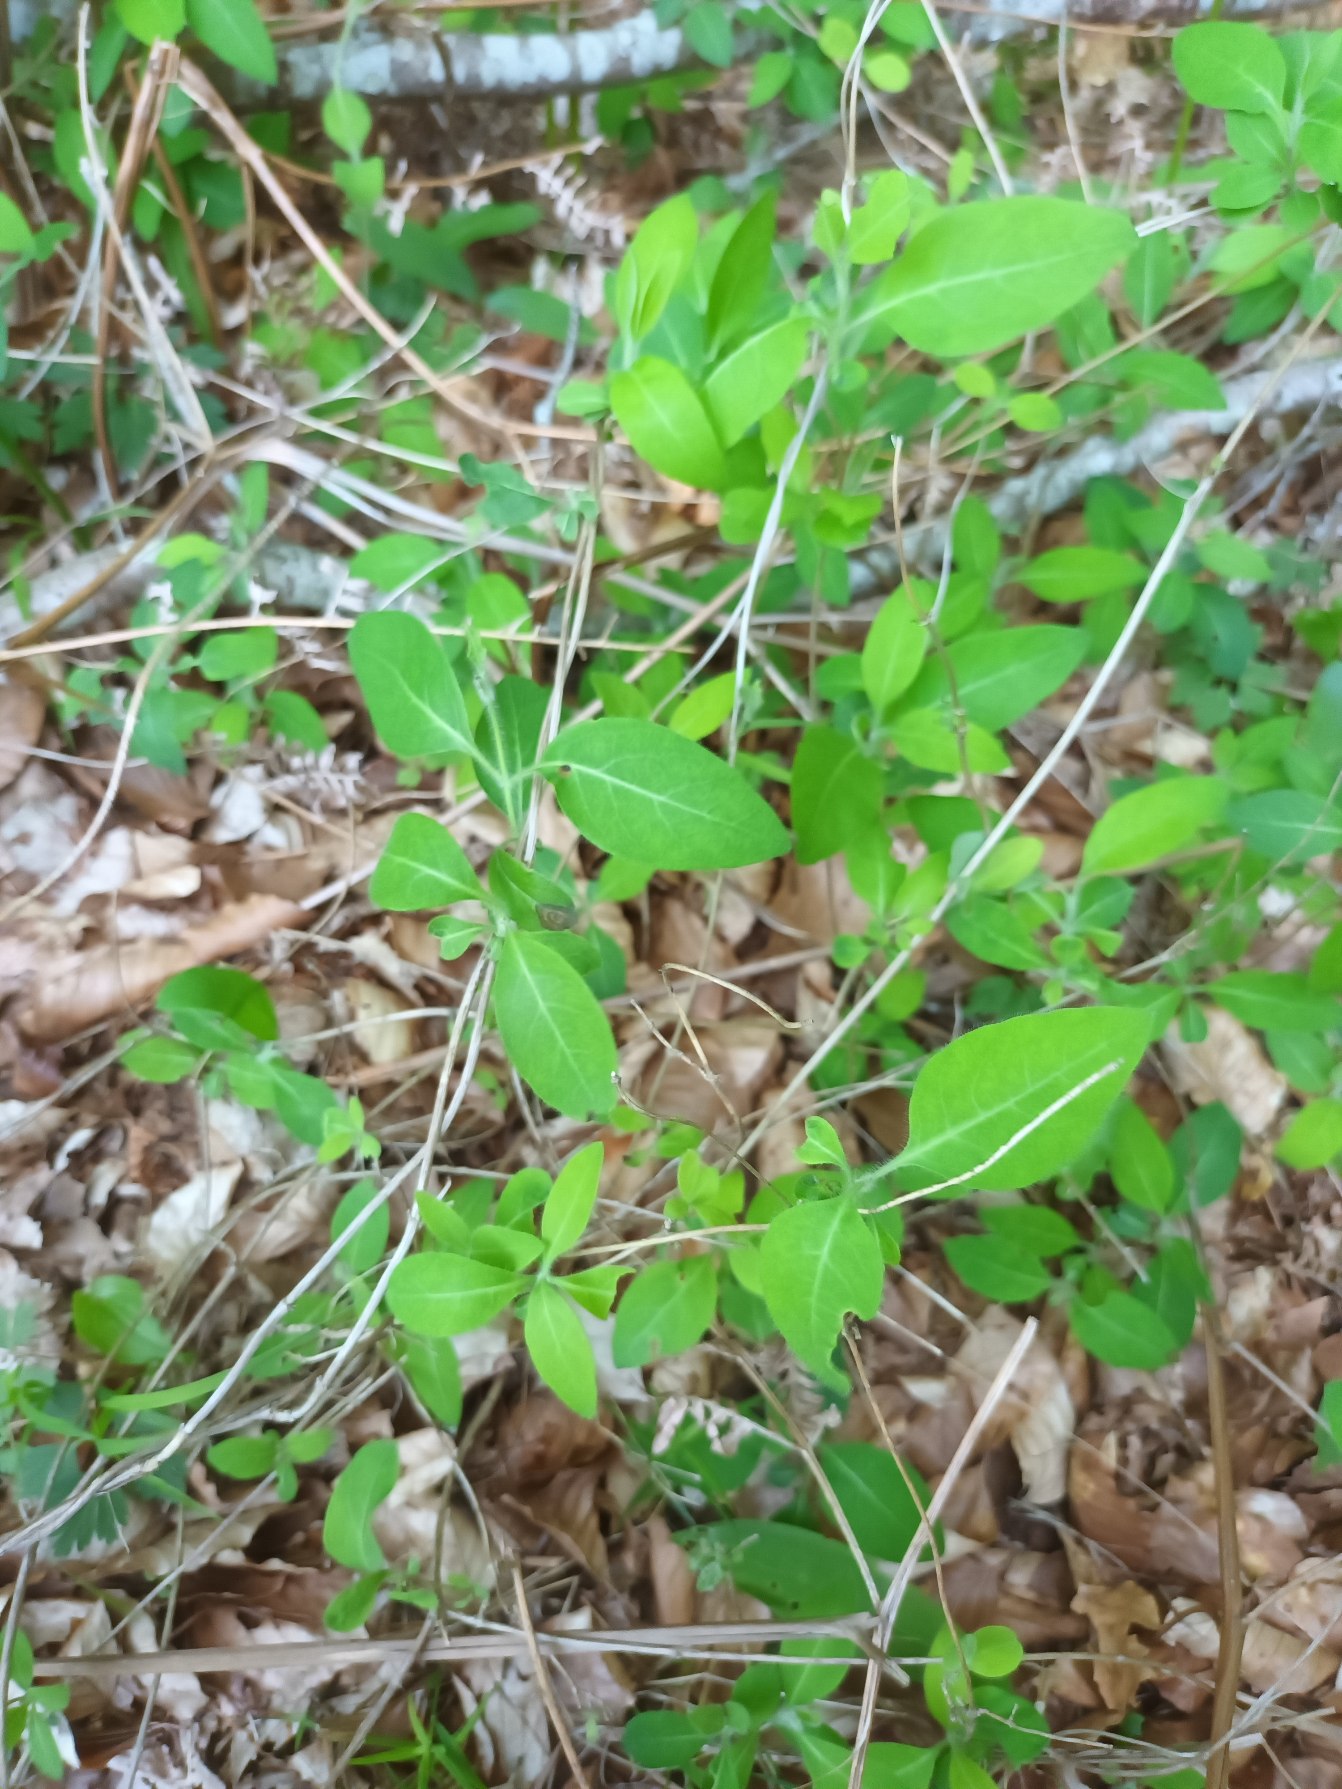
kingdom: Plantae
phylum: Tracheophyta
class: Magnoliopsida
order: Dipsacales
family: Caprifoliaceae
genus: Lonicera
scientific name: Lonicera periclymenum
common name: Almindelig gedeblad
